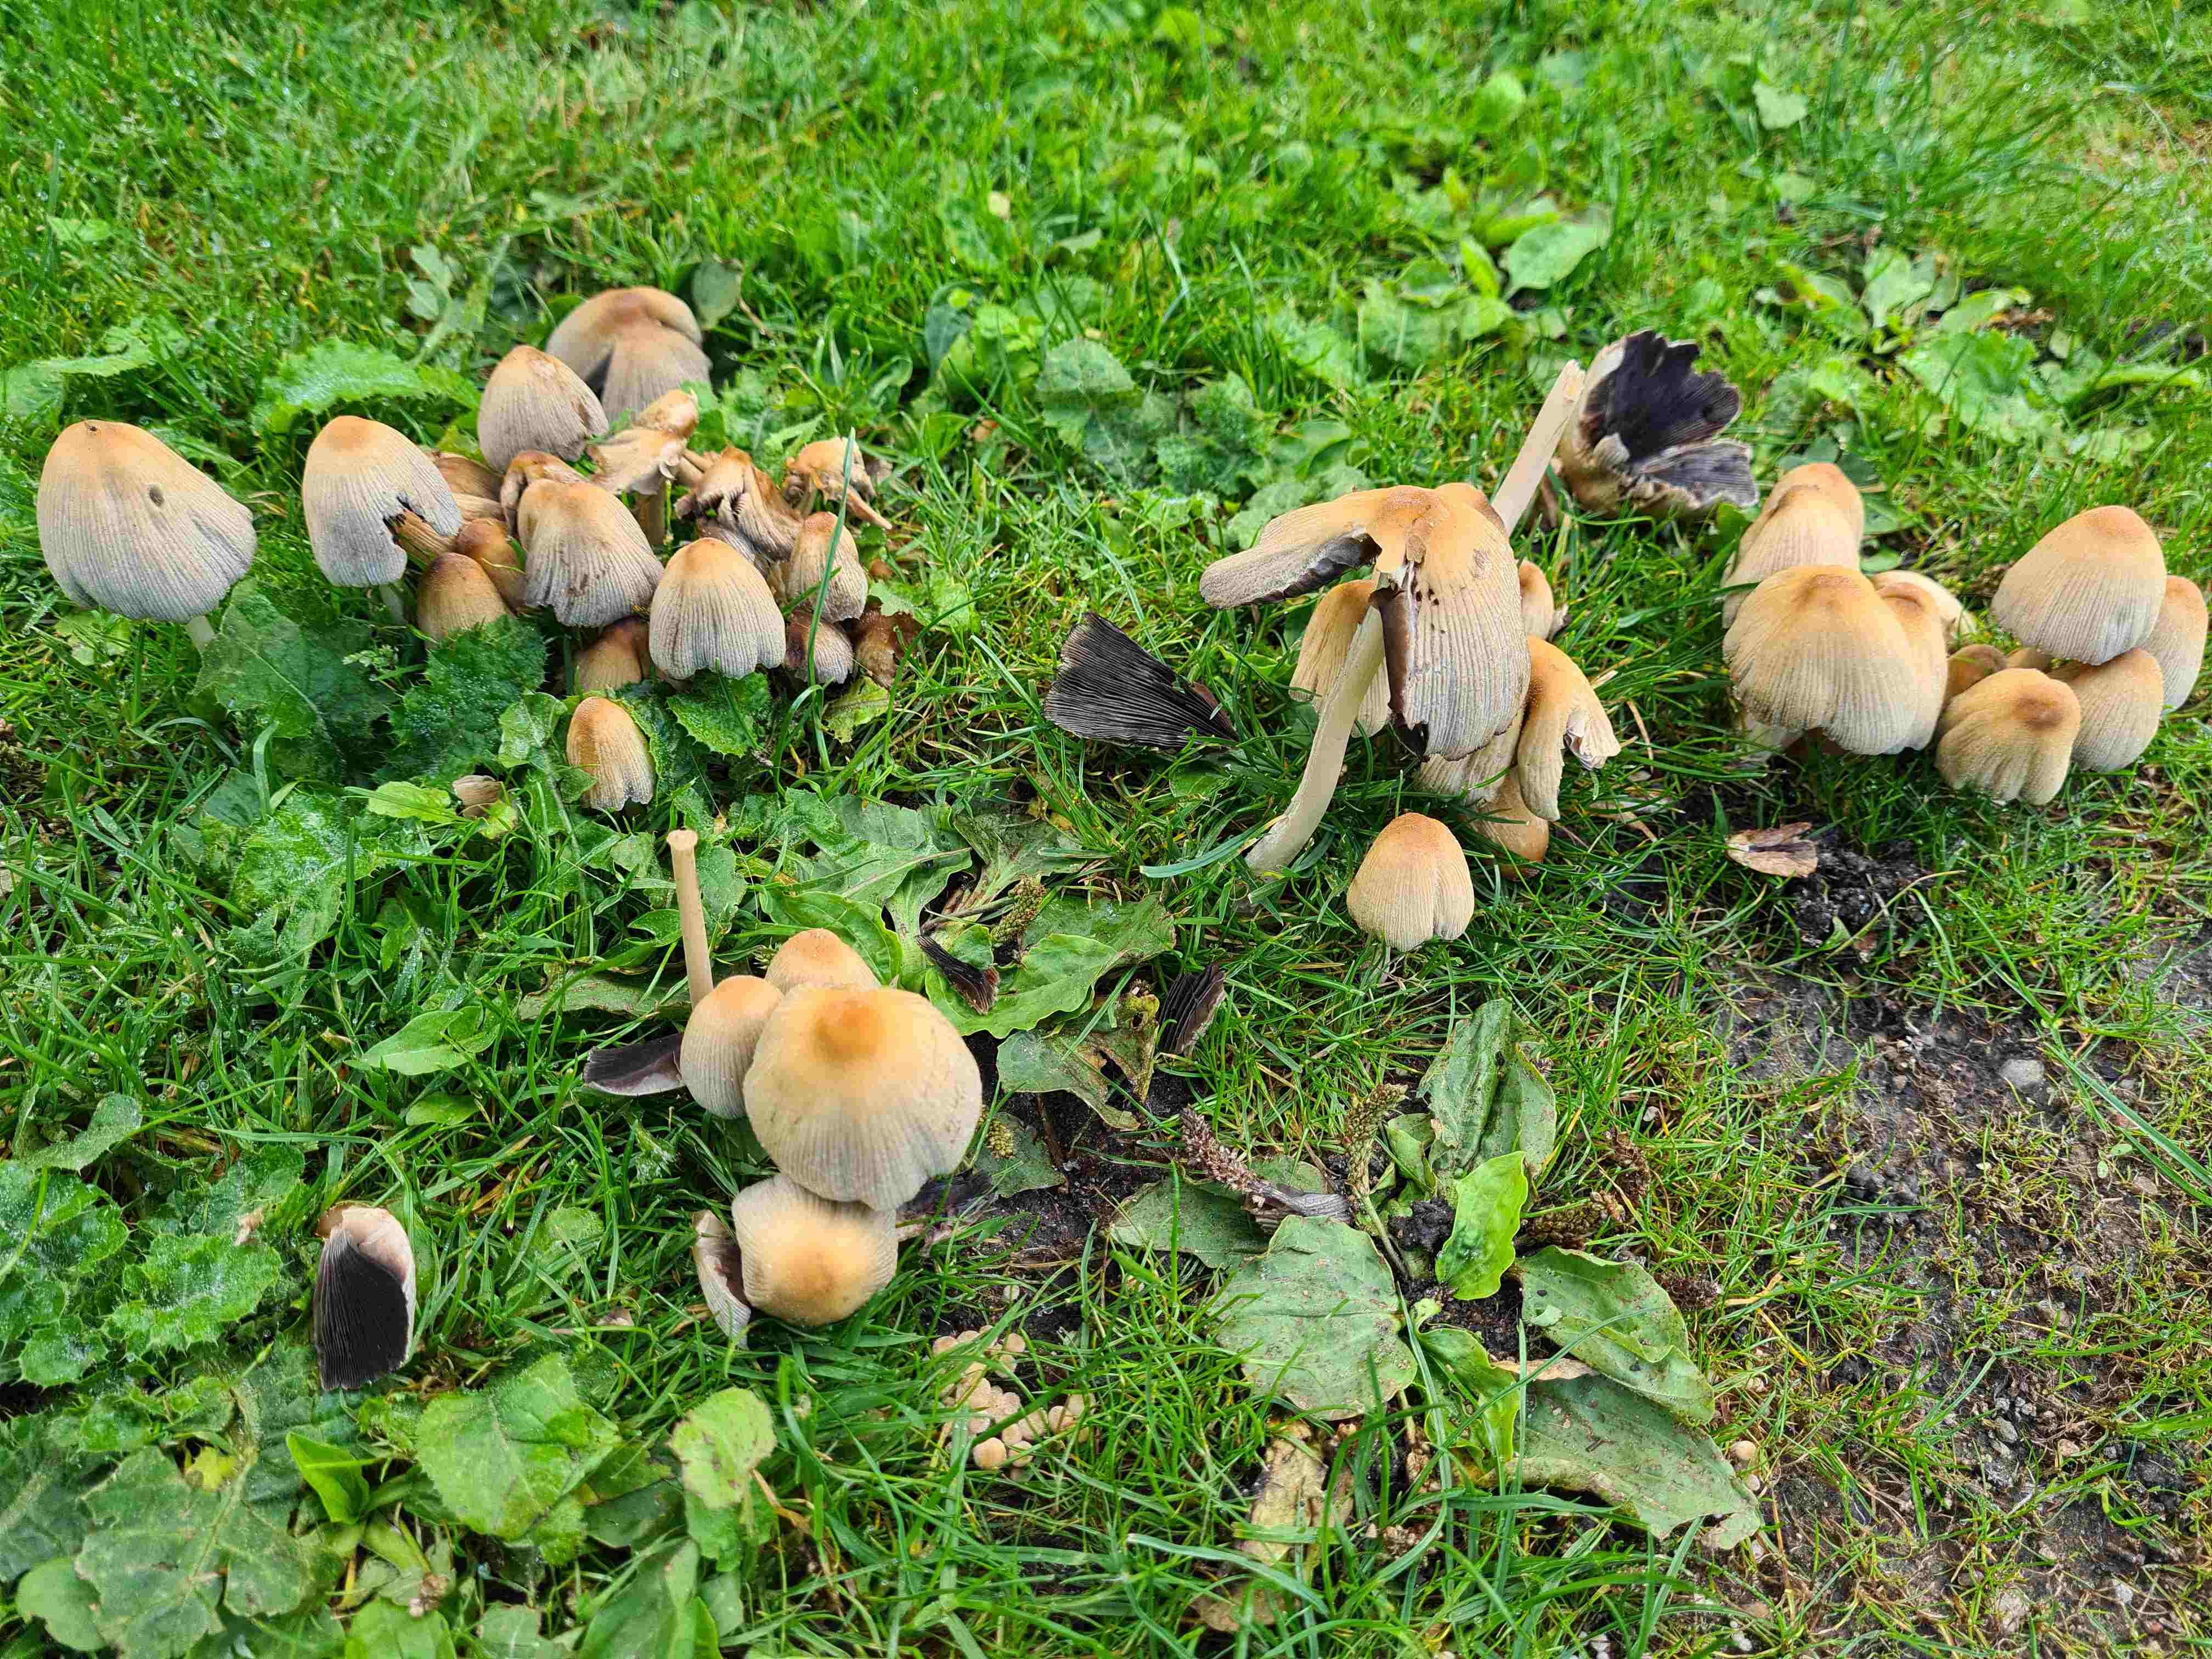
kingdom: Fungi
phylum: Basidiomycota
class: Agaricomycetes
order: Agaricales
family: Psathyrellaceae
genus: Coprinellus
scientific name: Coprinellus micaceus
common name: glimmer-blækhat
